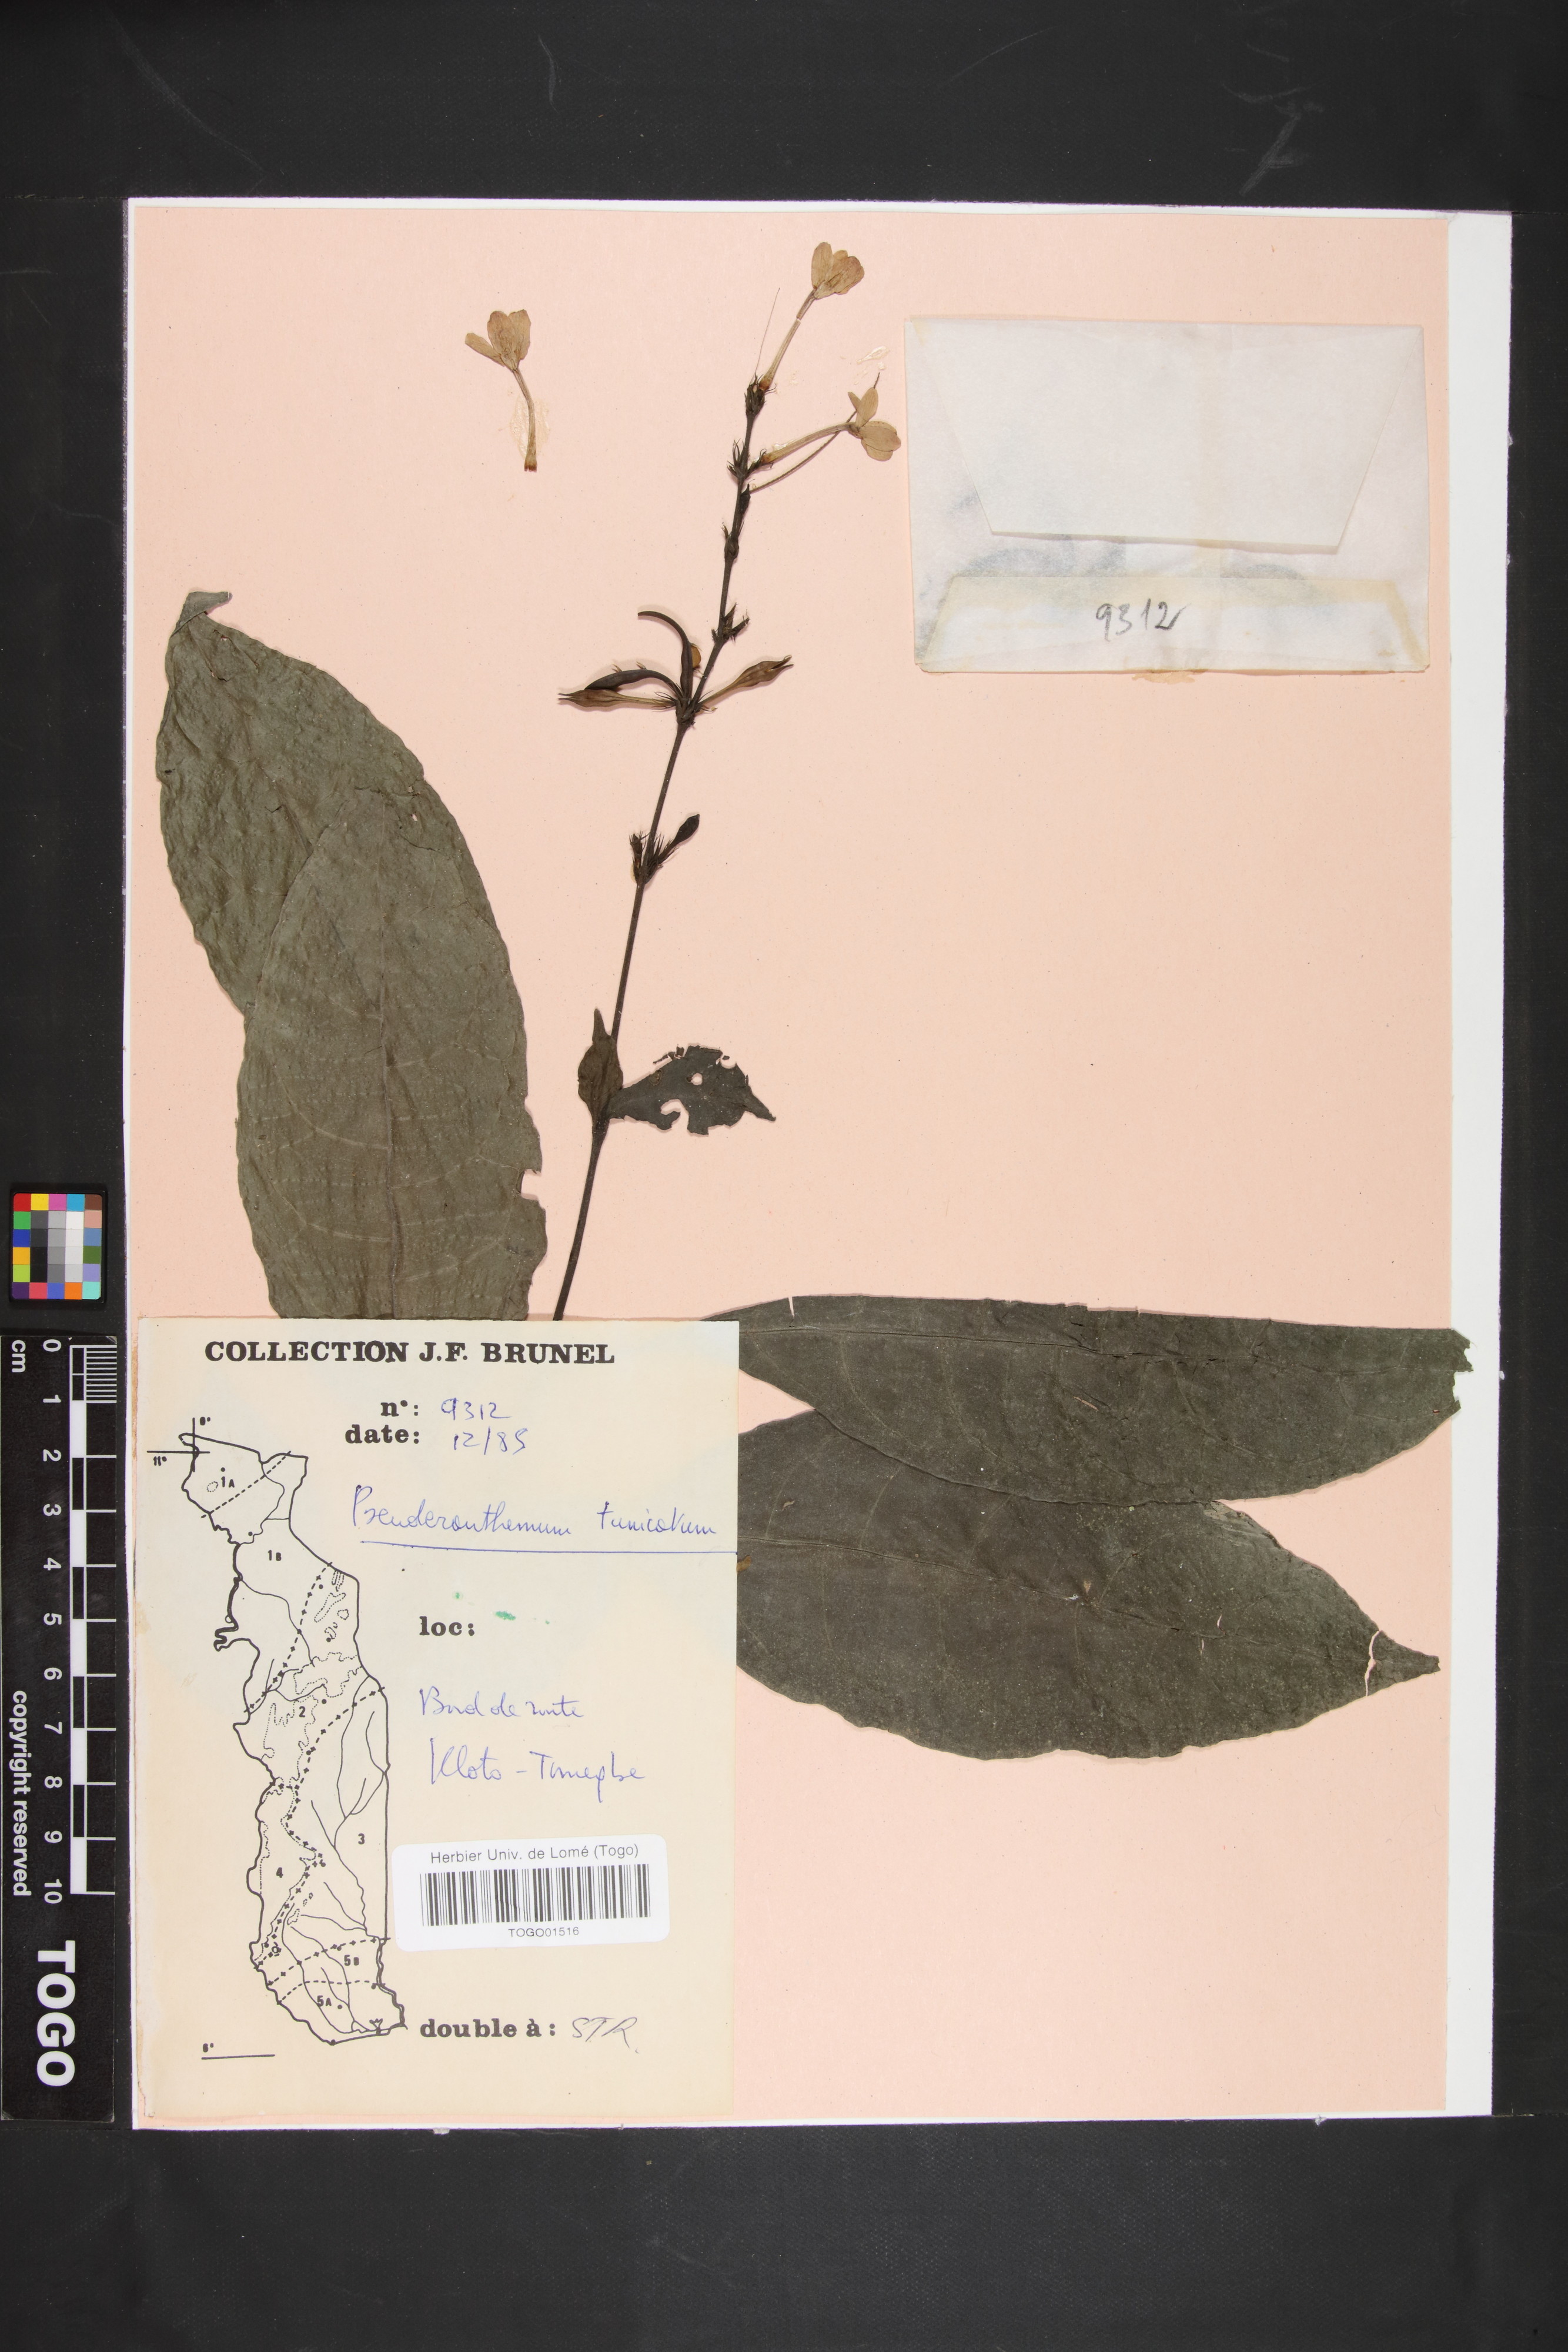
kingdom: Plantae
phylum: Tracheophyta
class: Magnoliopsida
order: Lamiales
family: Acanthaceae
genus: Pseuderanthemum
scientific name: Pseuderanthemum tunicatum
